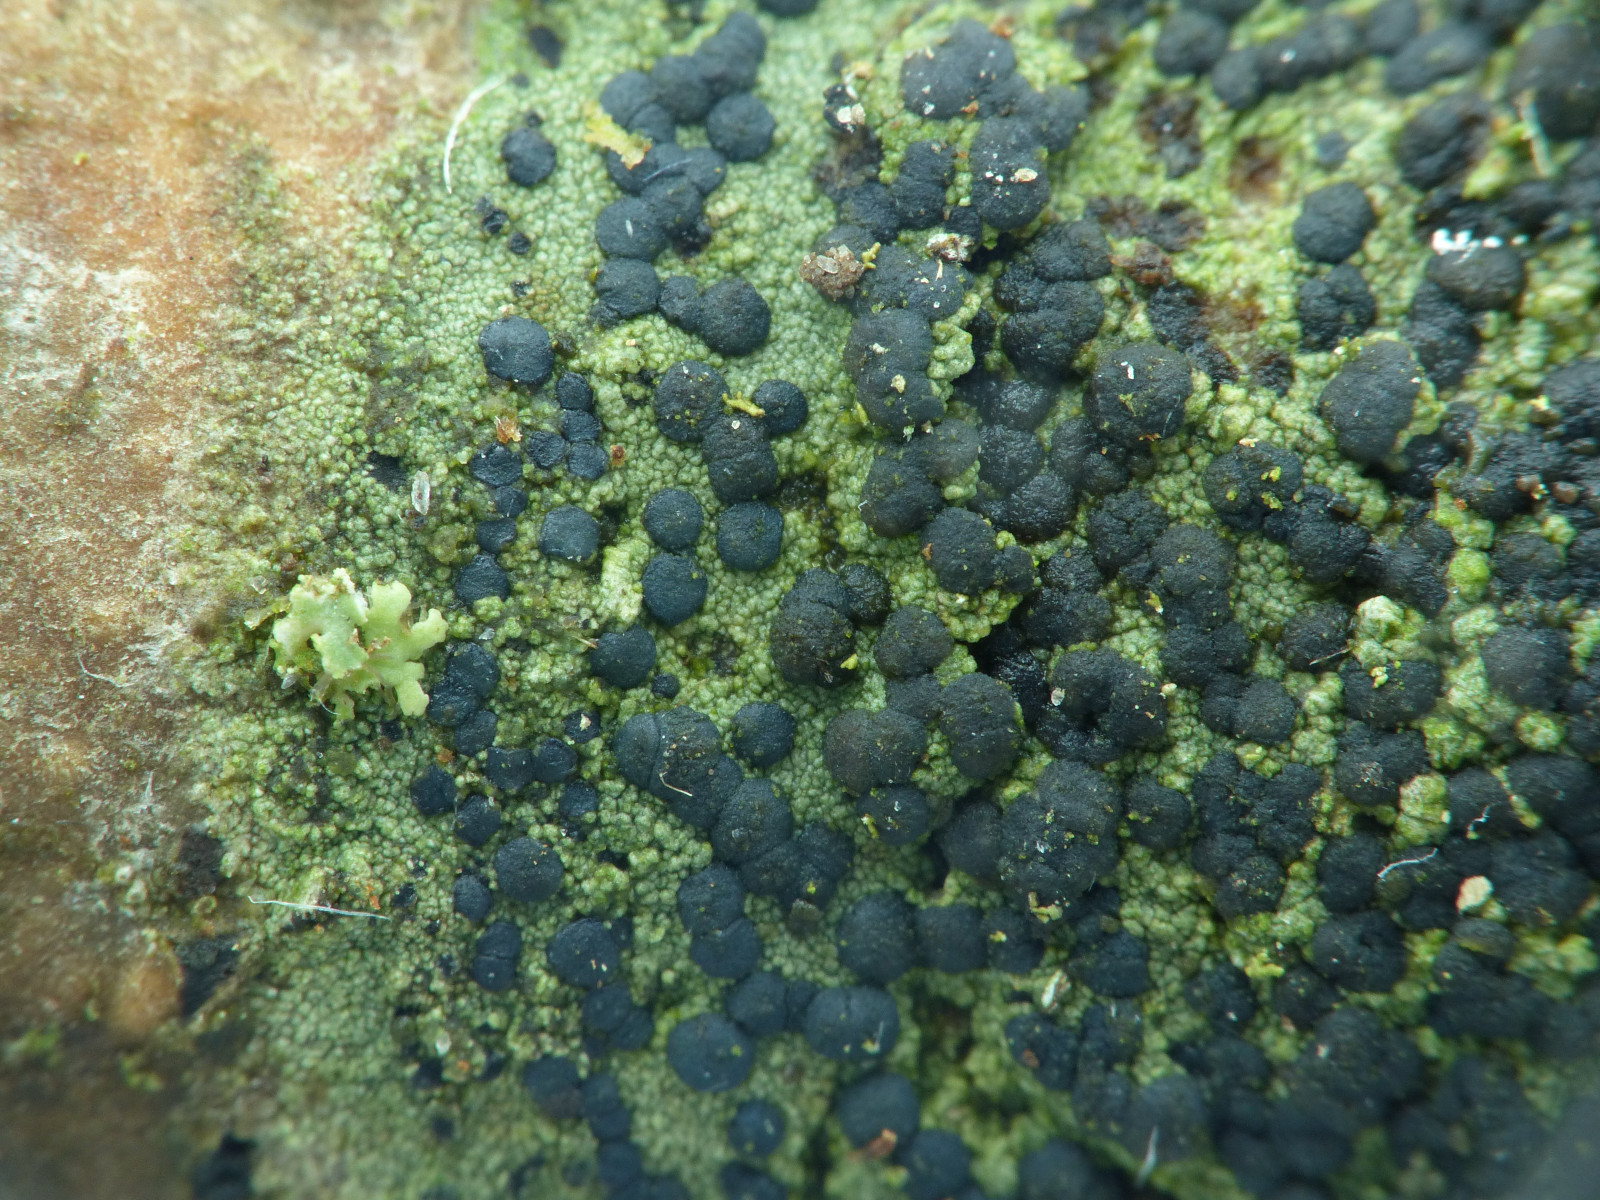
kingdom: Fungi
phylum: Ascomycota
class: Lecanoromycetes
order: Lecanorales
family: Lecanoraceae
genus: Lecidella
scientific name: Lecidella euphorea
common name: vortet skivelav
